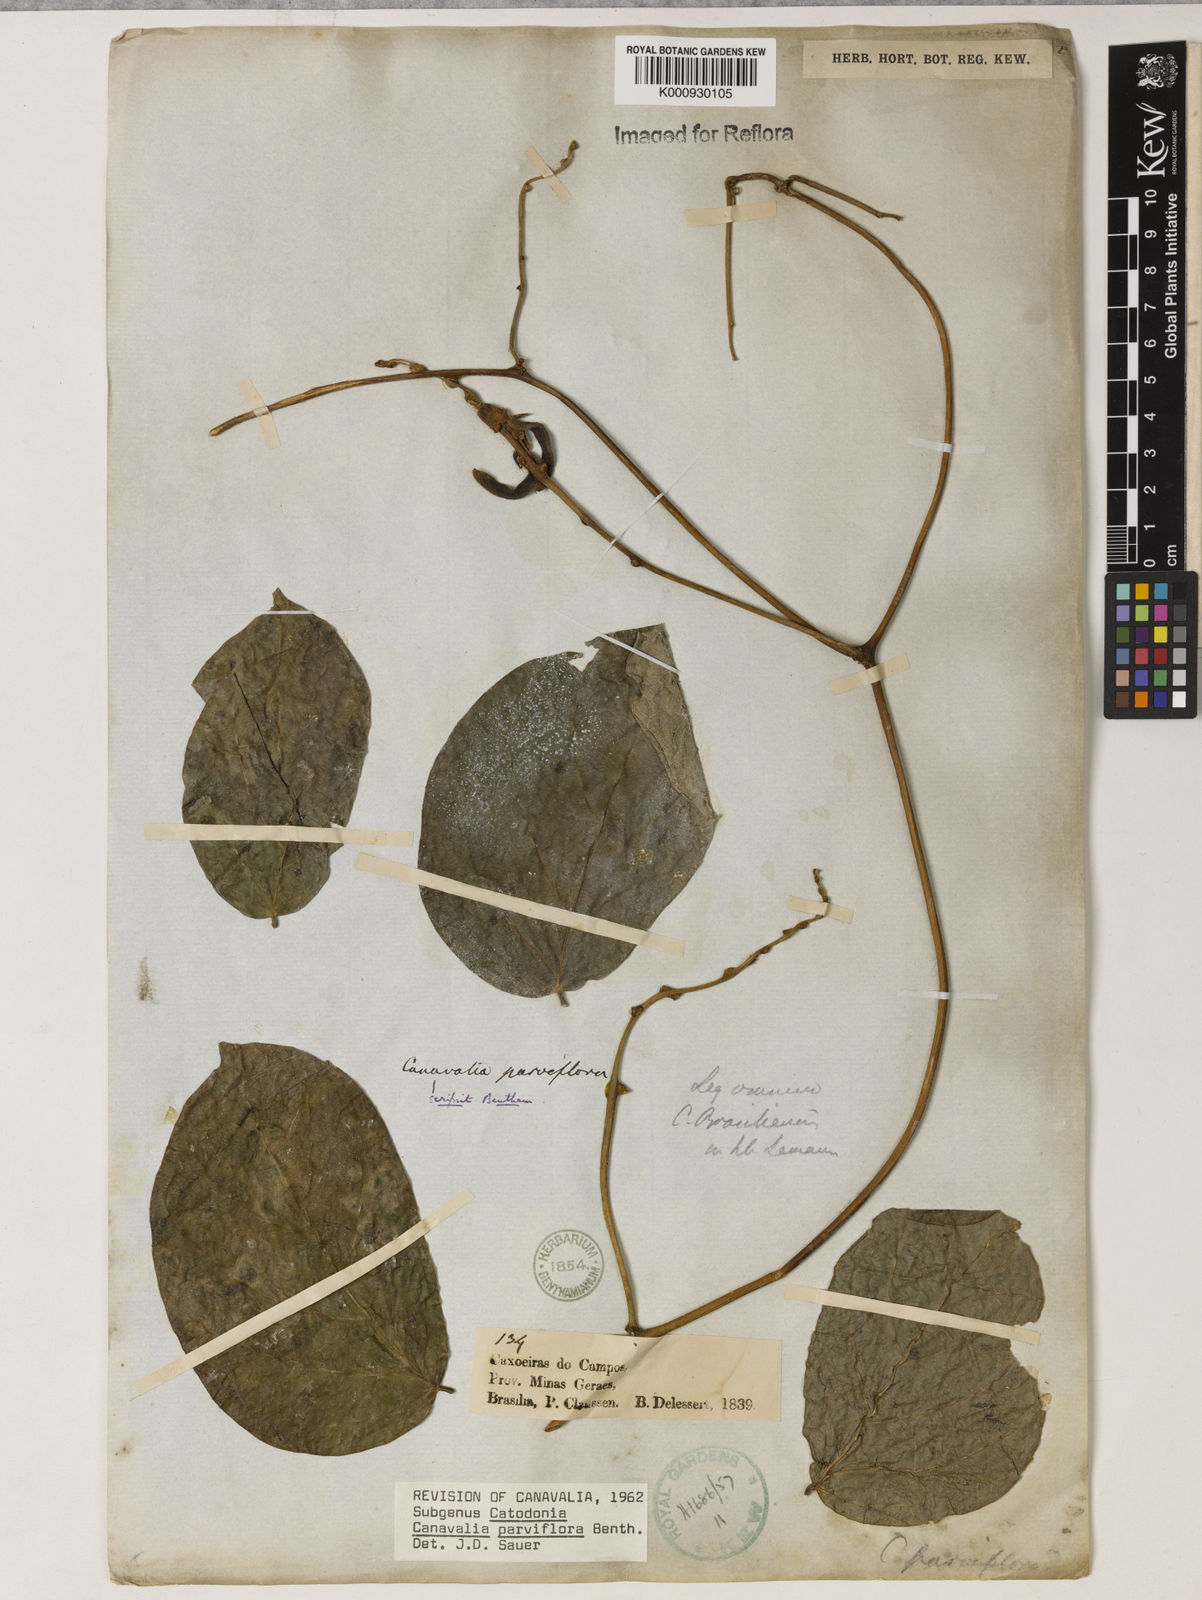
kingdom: Plantae
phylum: Tracheophyta
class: Magnoliopsida
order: Fabales
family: Fabaceae
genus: Canavalia
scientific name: Canavalia parviflora
